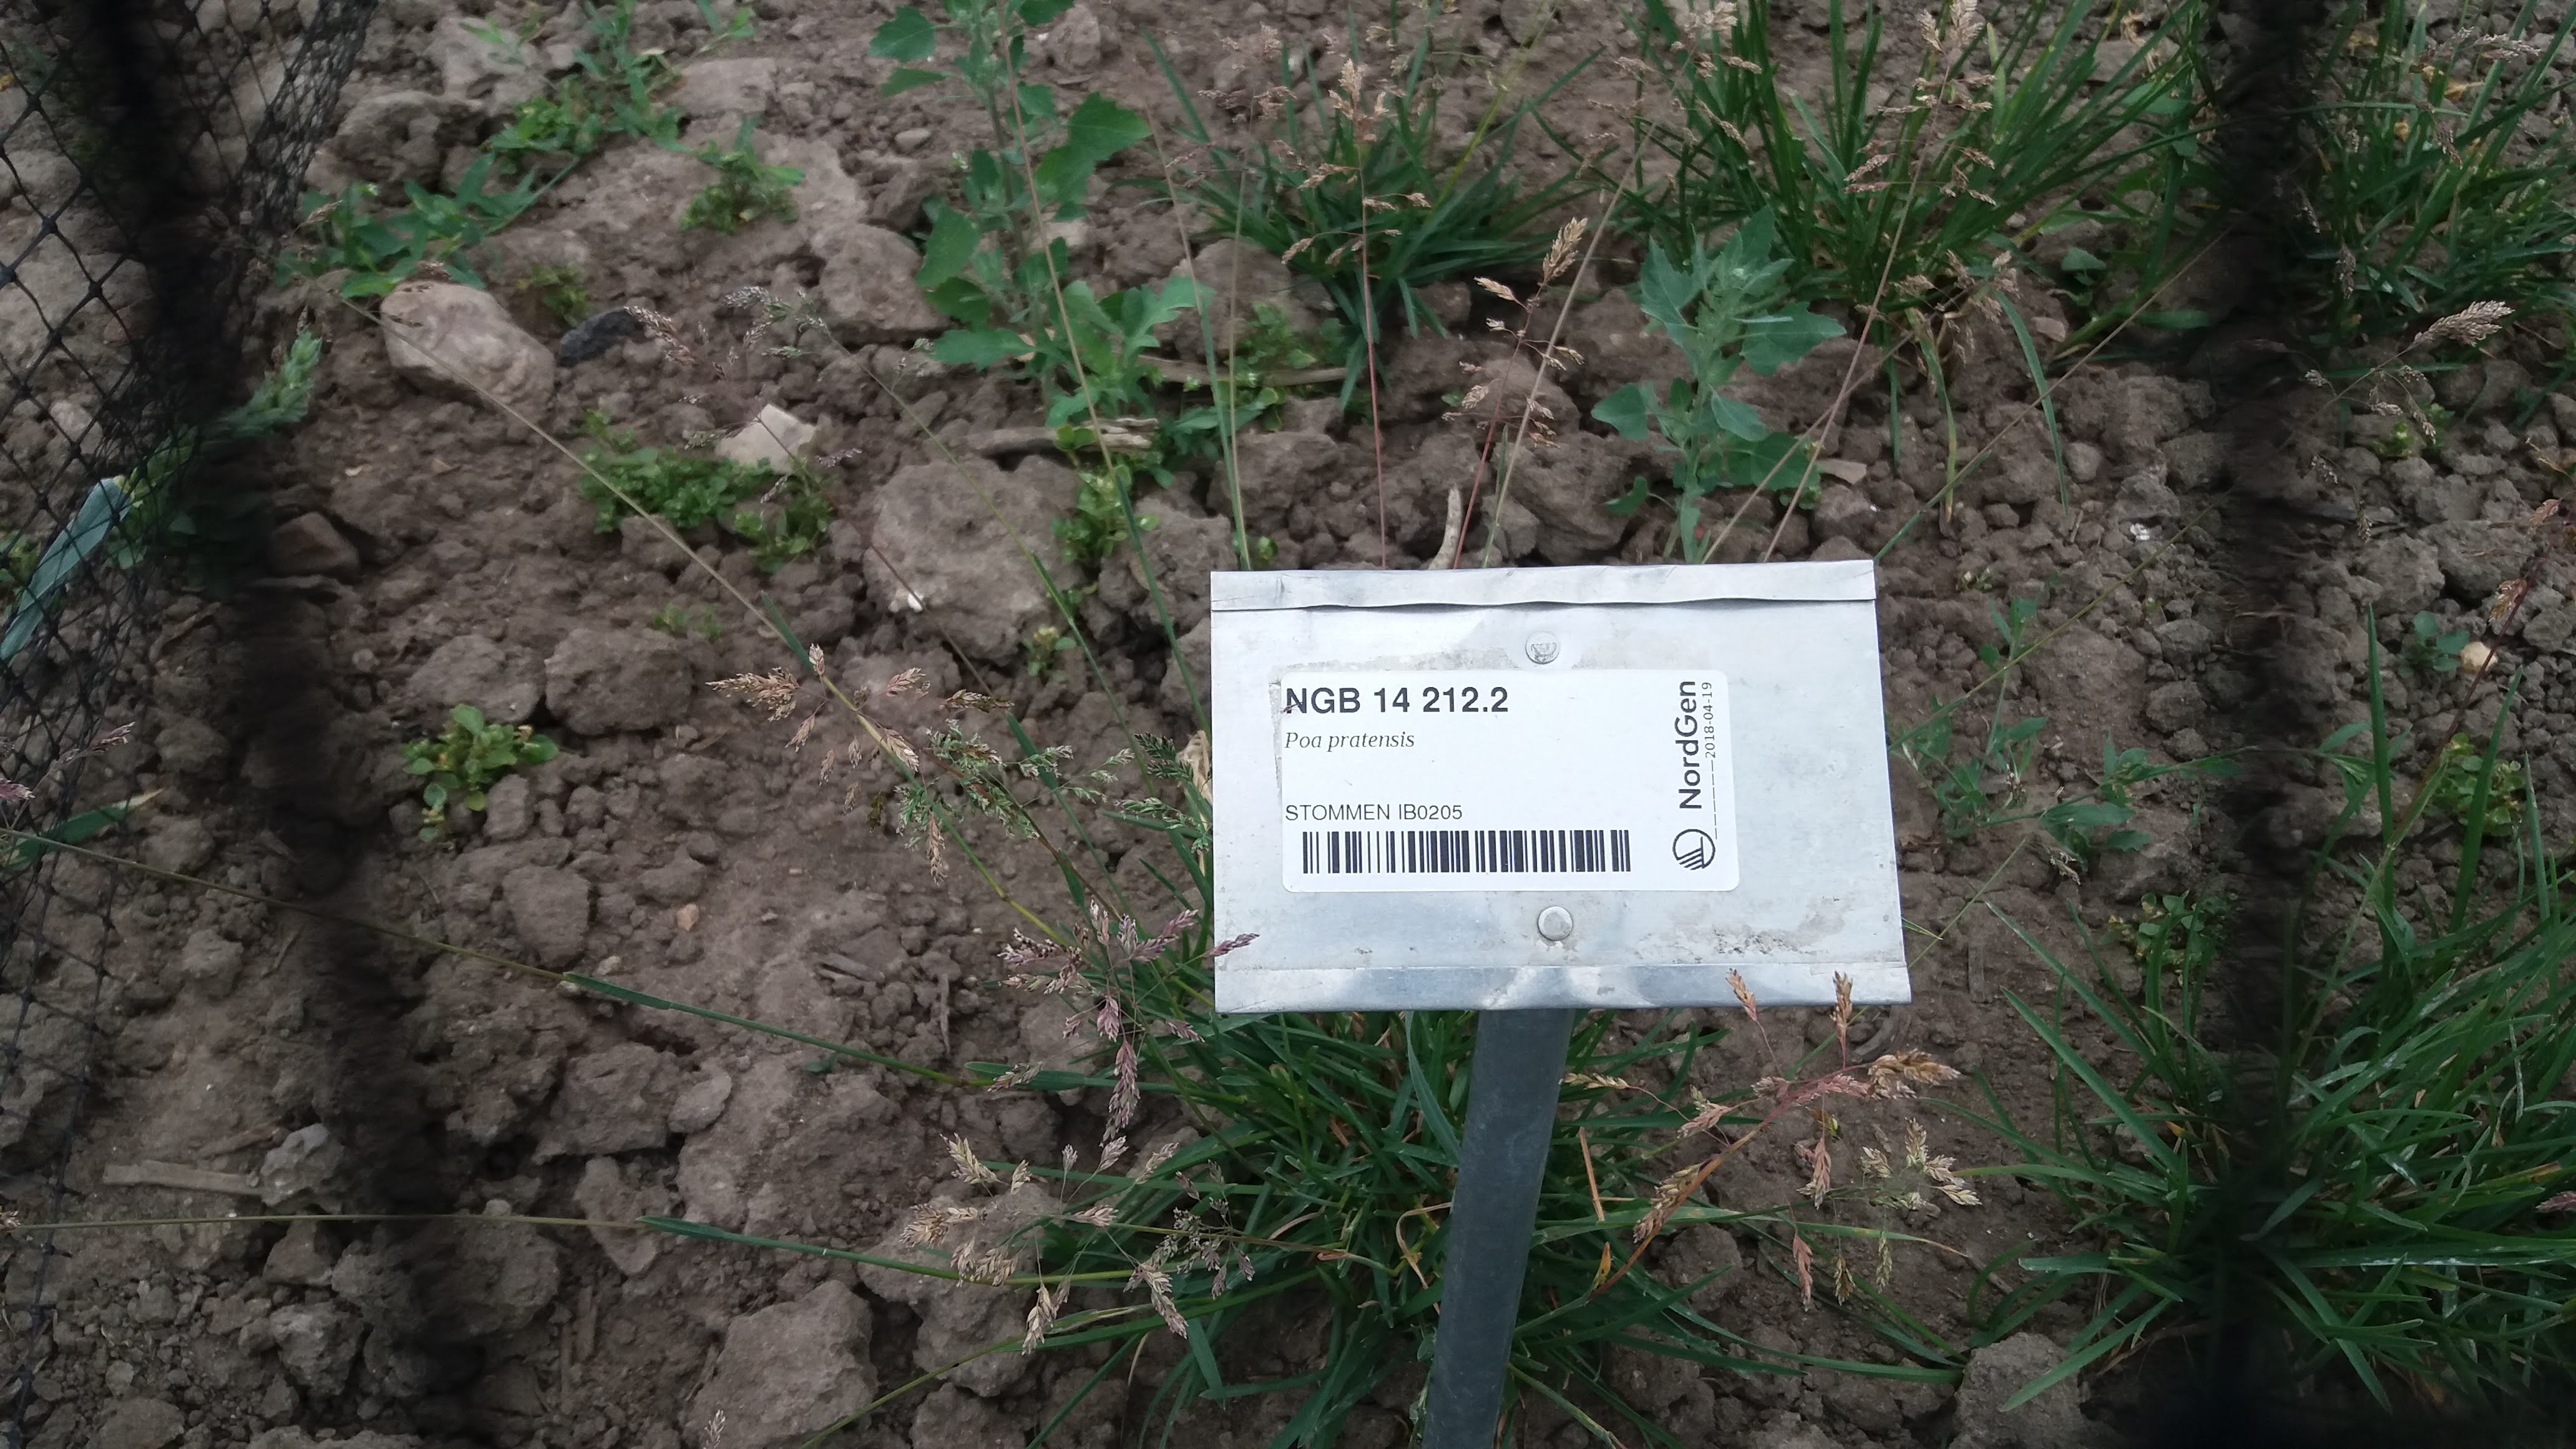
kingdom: Plantae
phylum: Tracheophyta
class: Liliopsida
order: Poales
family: Poaceae
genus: Poa
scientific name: Poa pratensis
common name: Kentucky bluegrass
